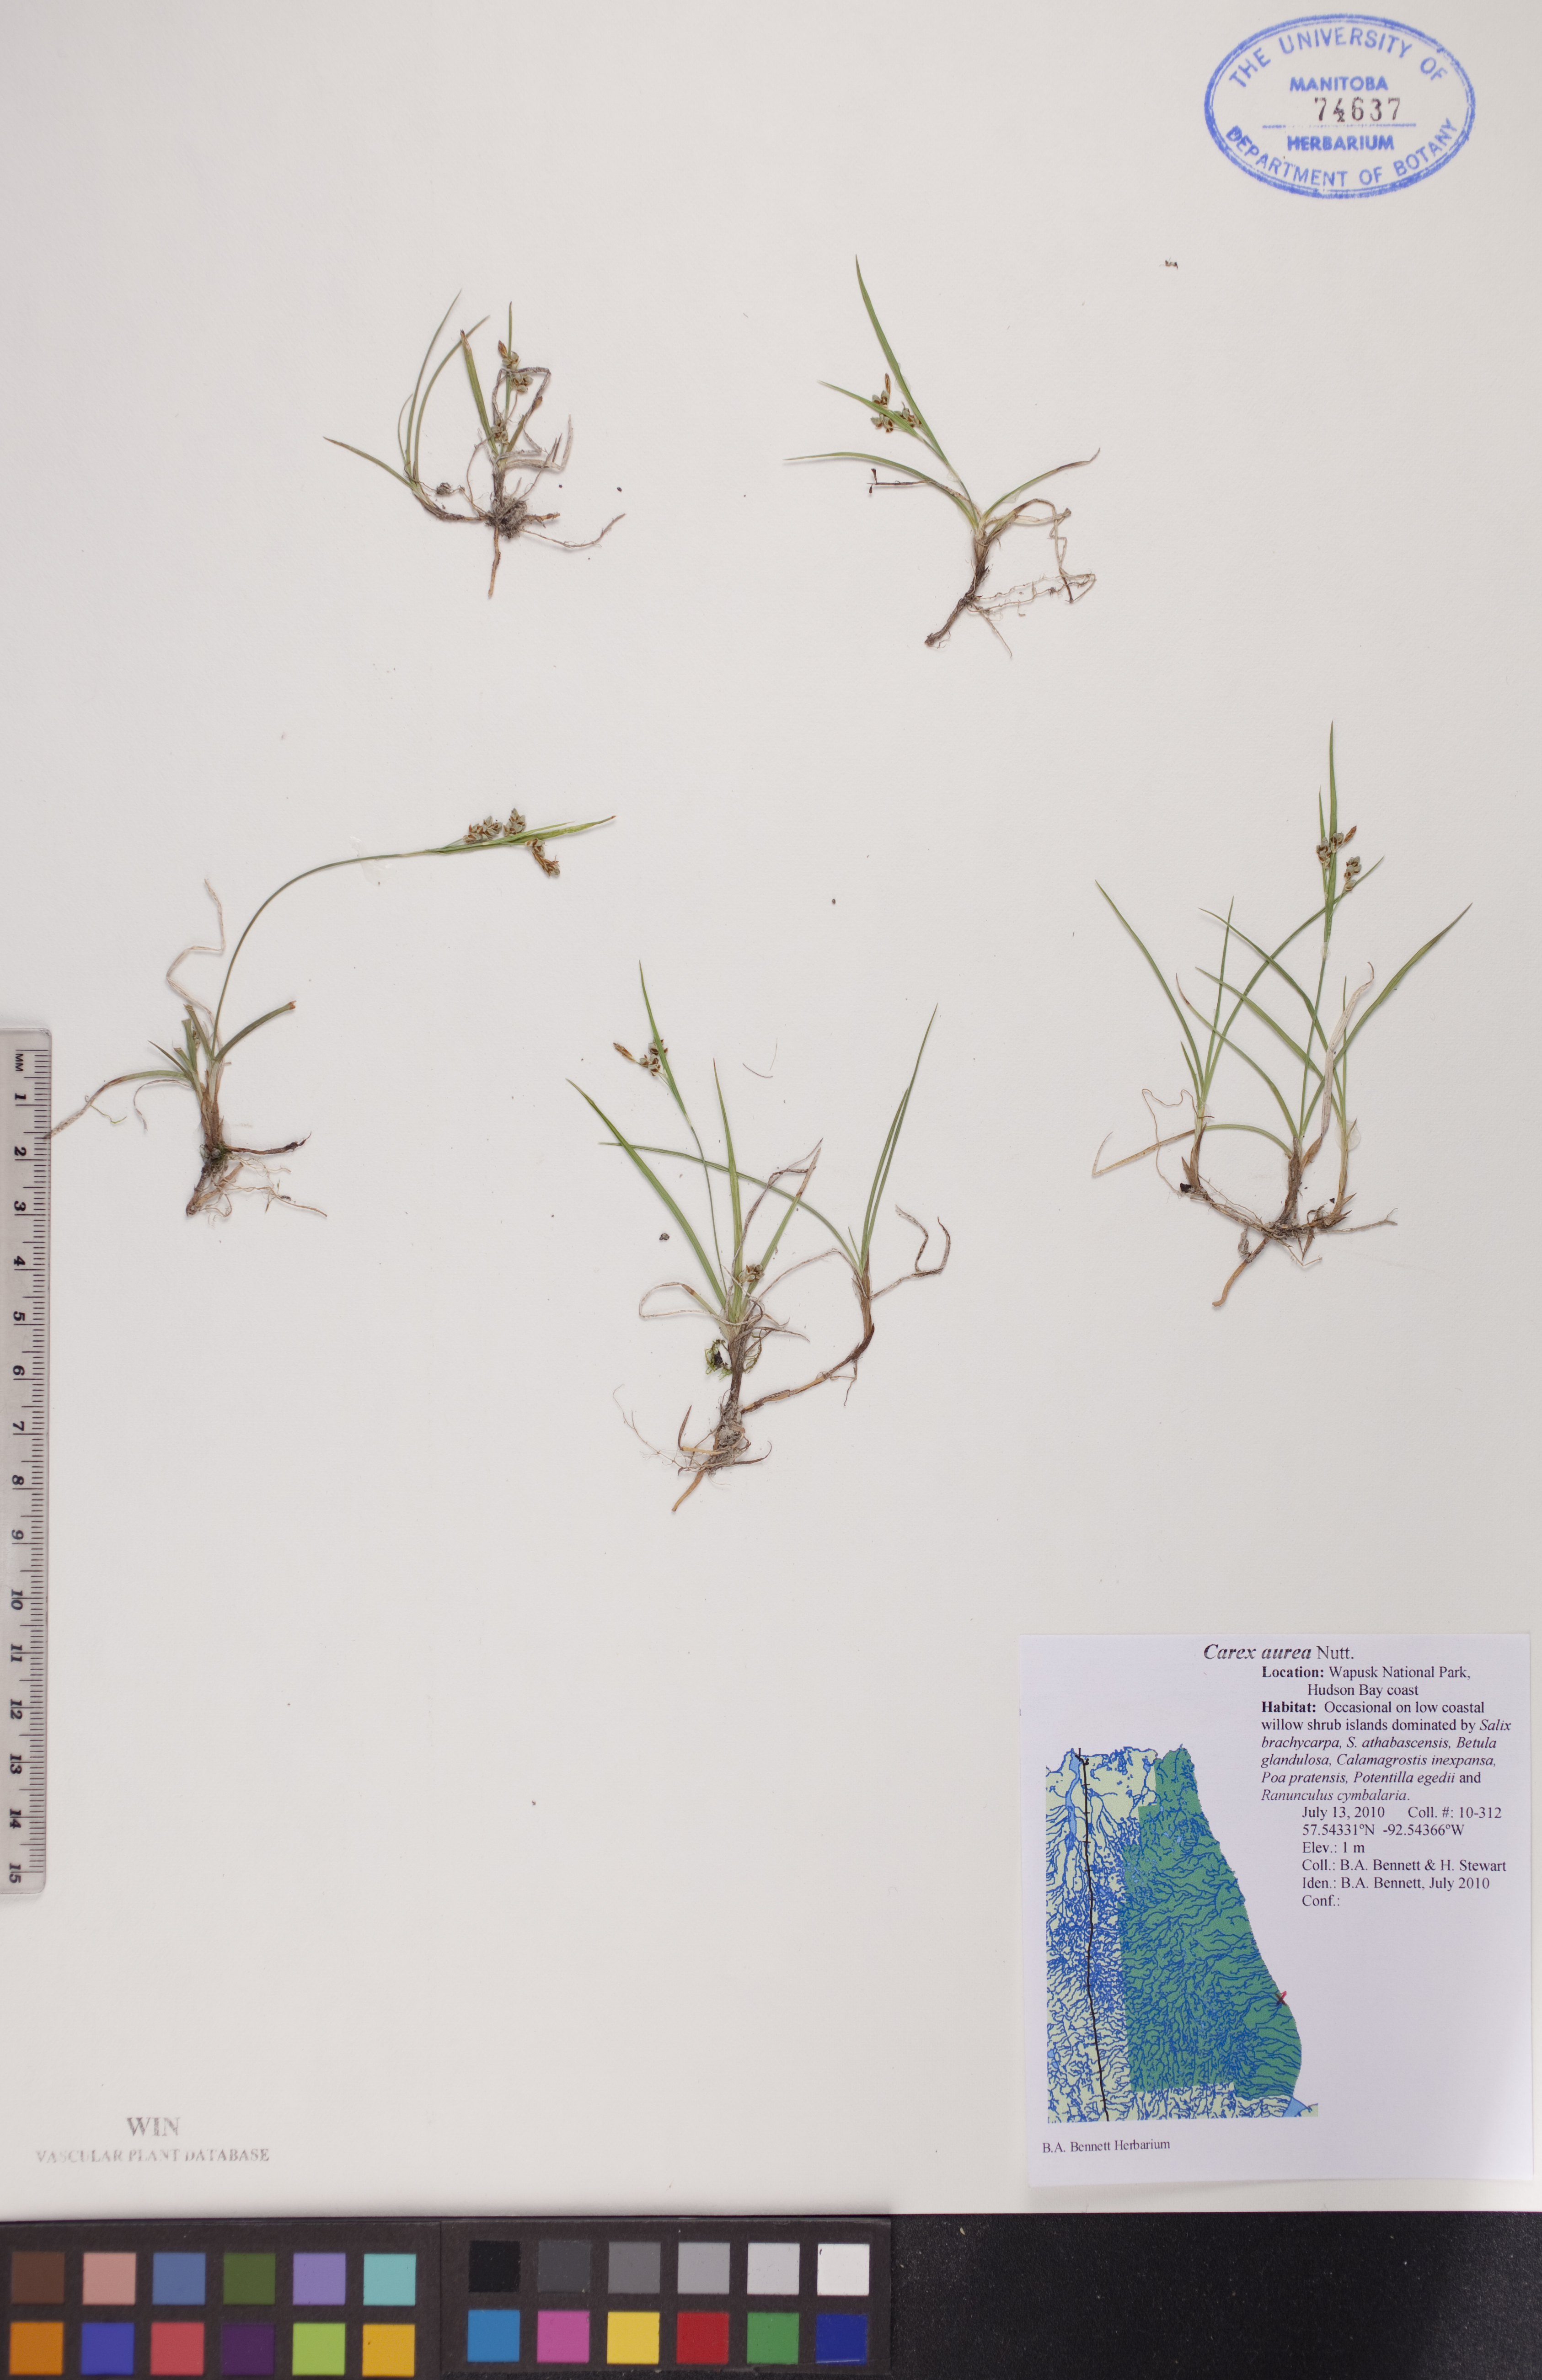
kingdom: Plantae
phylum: Tracheophyta
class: Liliopsida
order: Poales
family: Cyperaceae
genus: Carex
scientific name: Carex aurea
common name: Golden sedge
